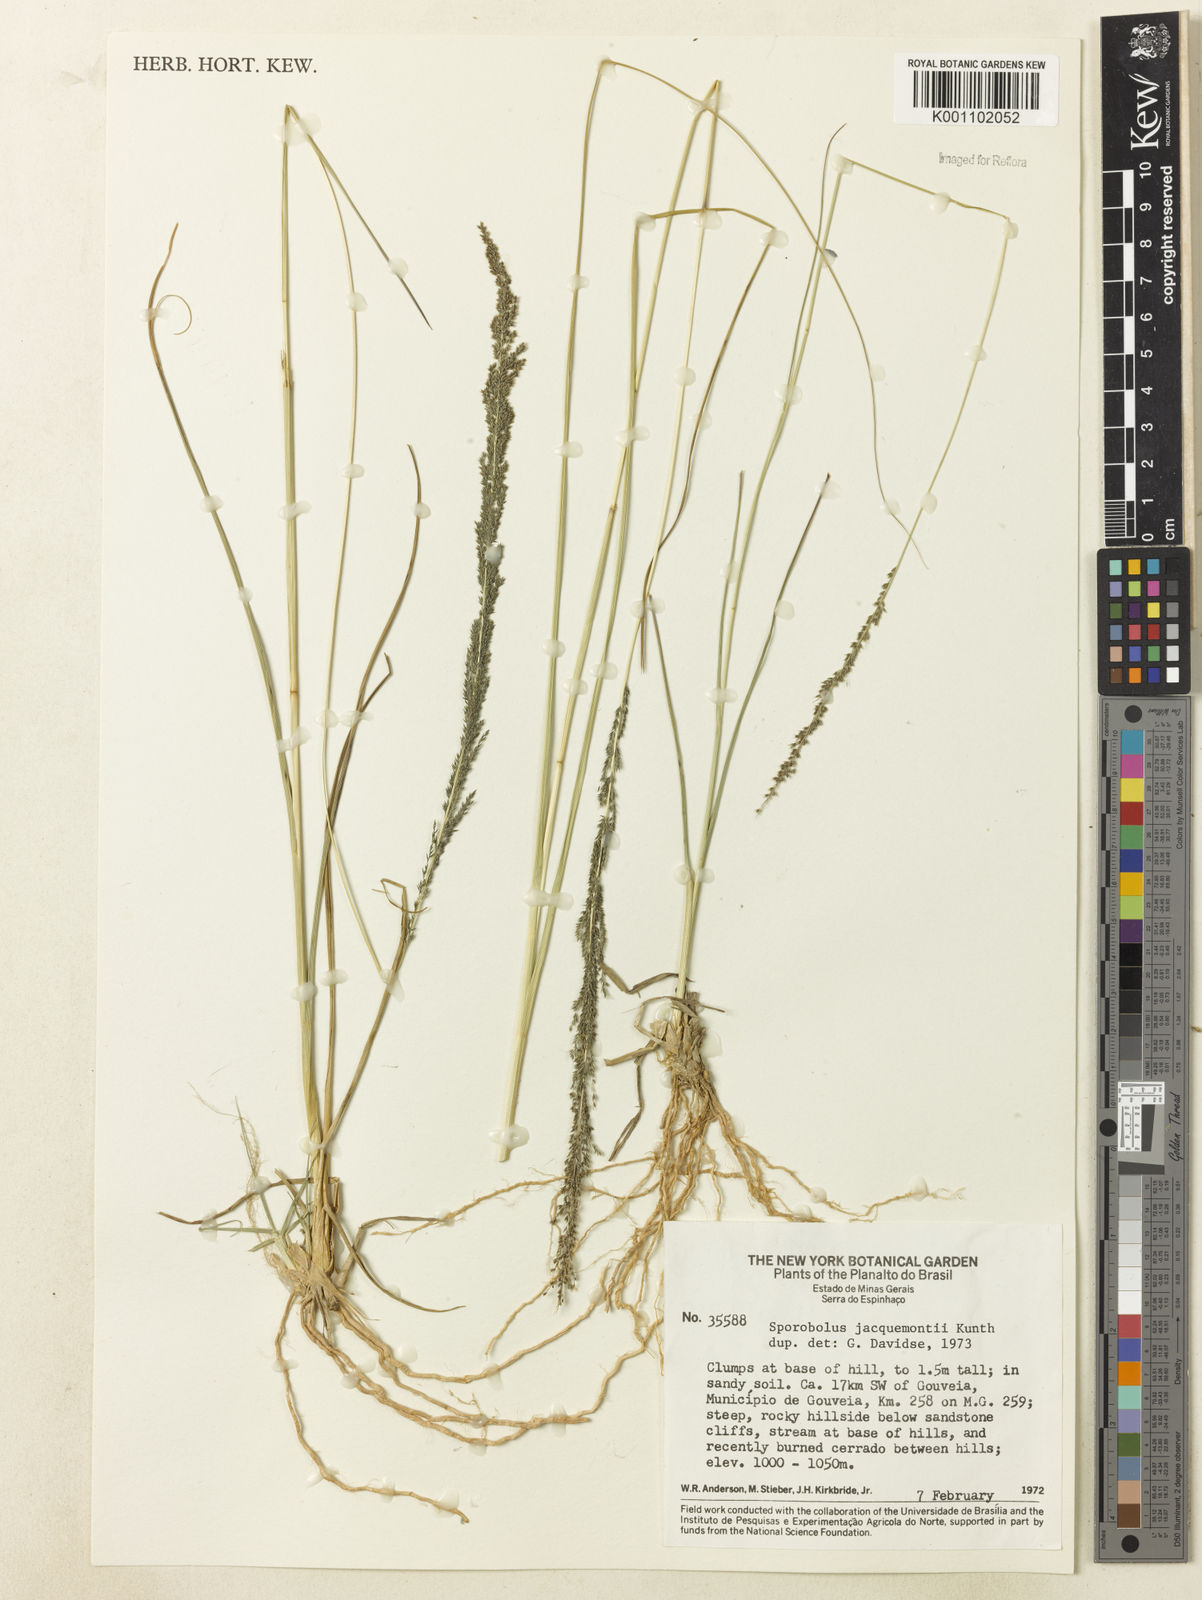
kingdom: Plantae
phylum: Tracheophyta
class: Liliopsida
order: Poales
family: Poaceae
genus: Sporobolus
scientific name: Sporobolus pyramidalis
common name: West indian dropseed
